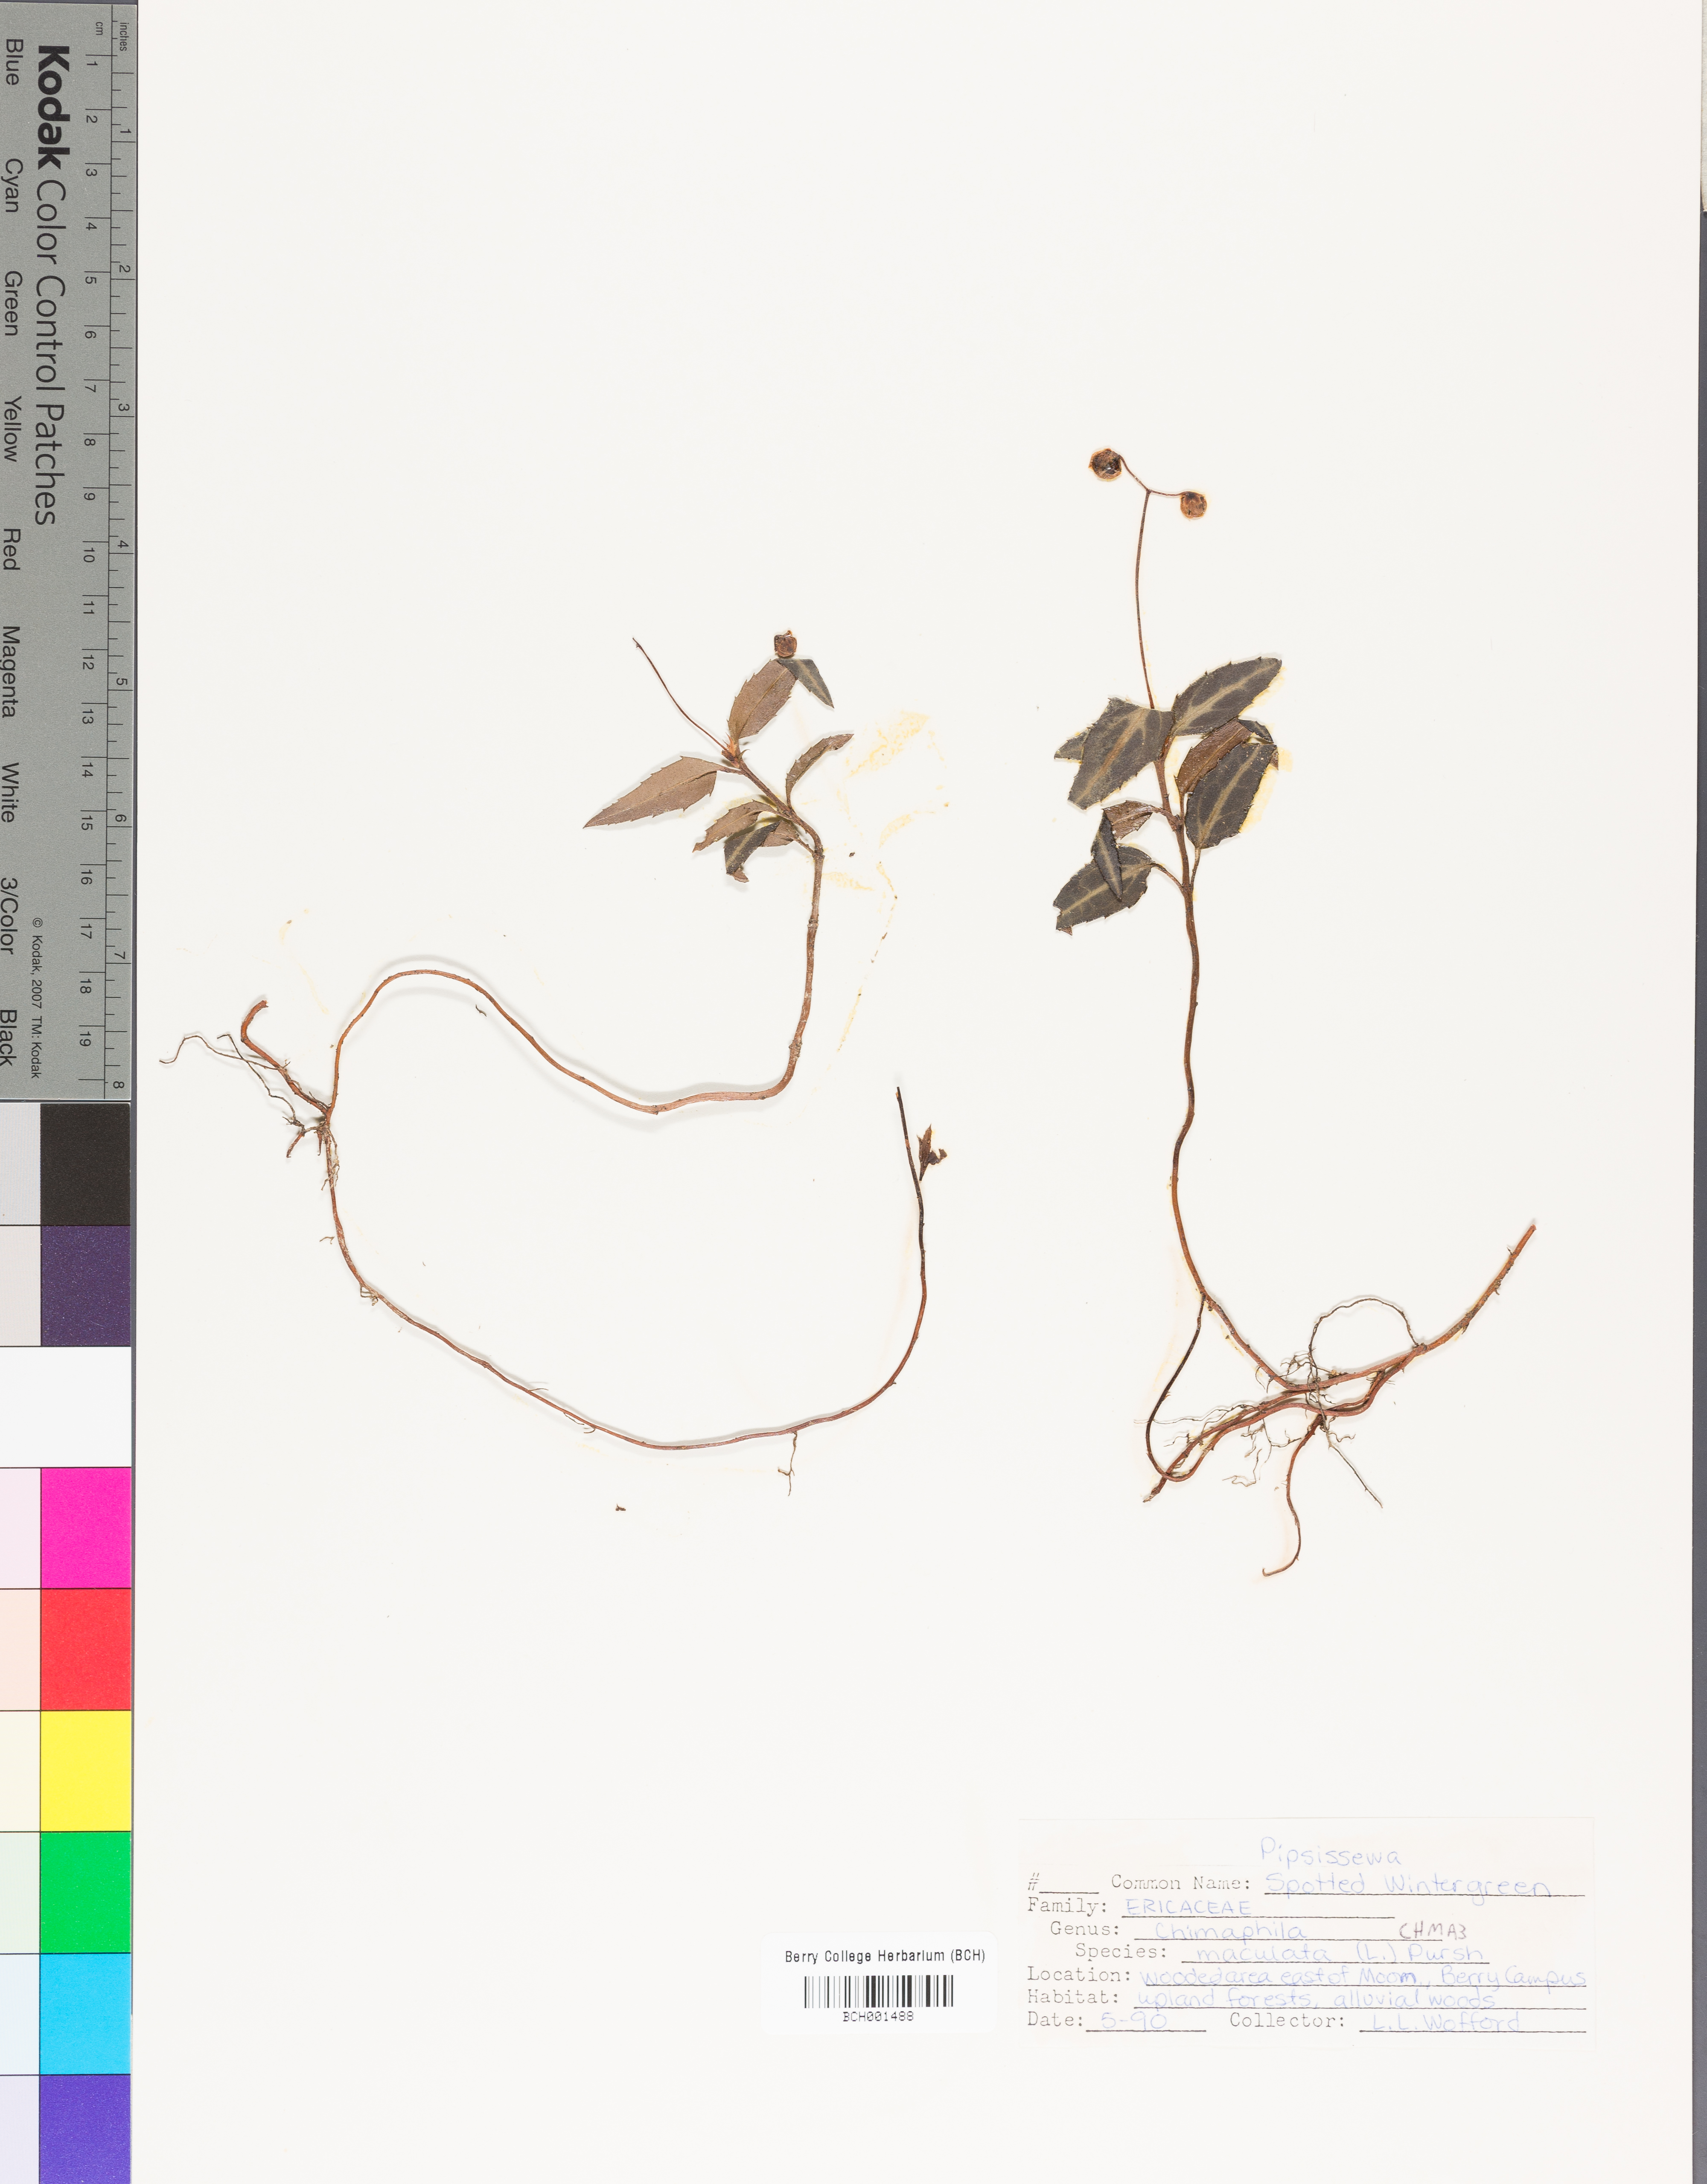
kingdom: Plantae
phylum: Tracheophyta
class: Magnoliopsida
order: Ericales
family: Ericaceae
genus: Chimaphila
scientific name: Chimaphila maculata
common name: Spotted pipsissewa
